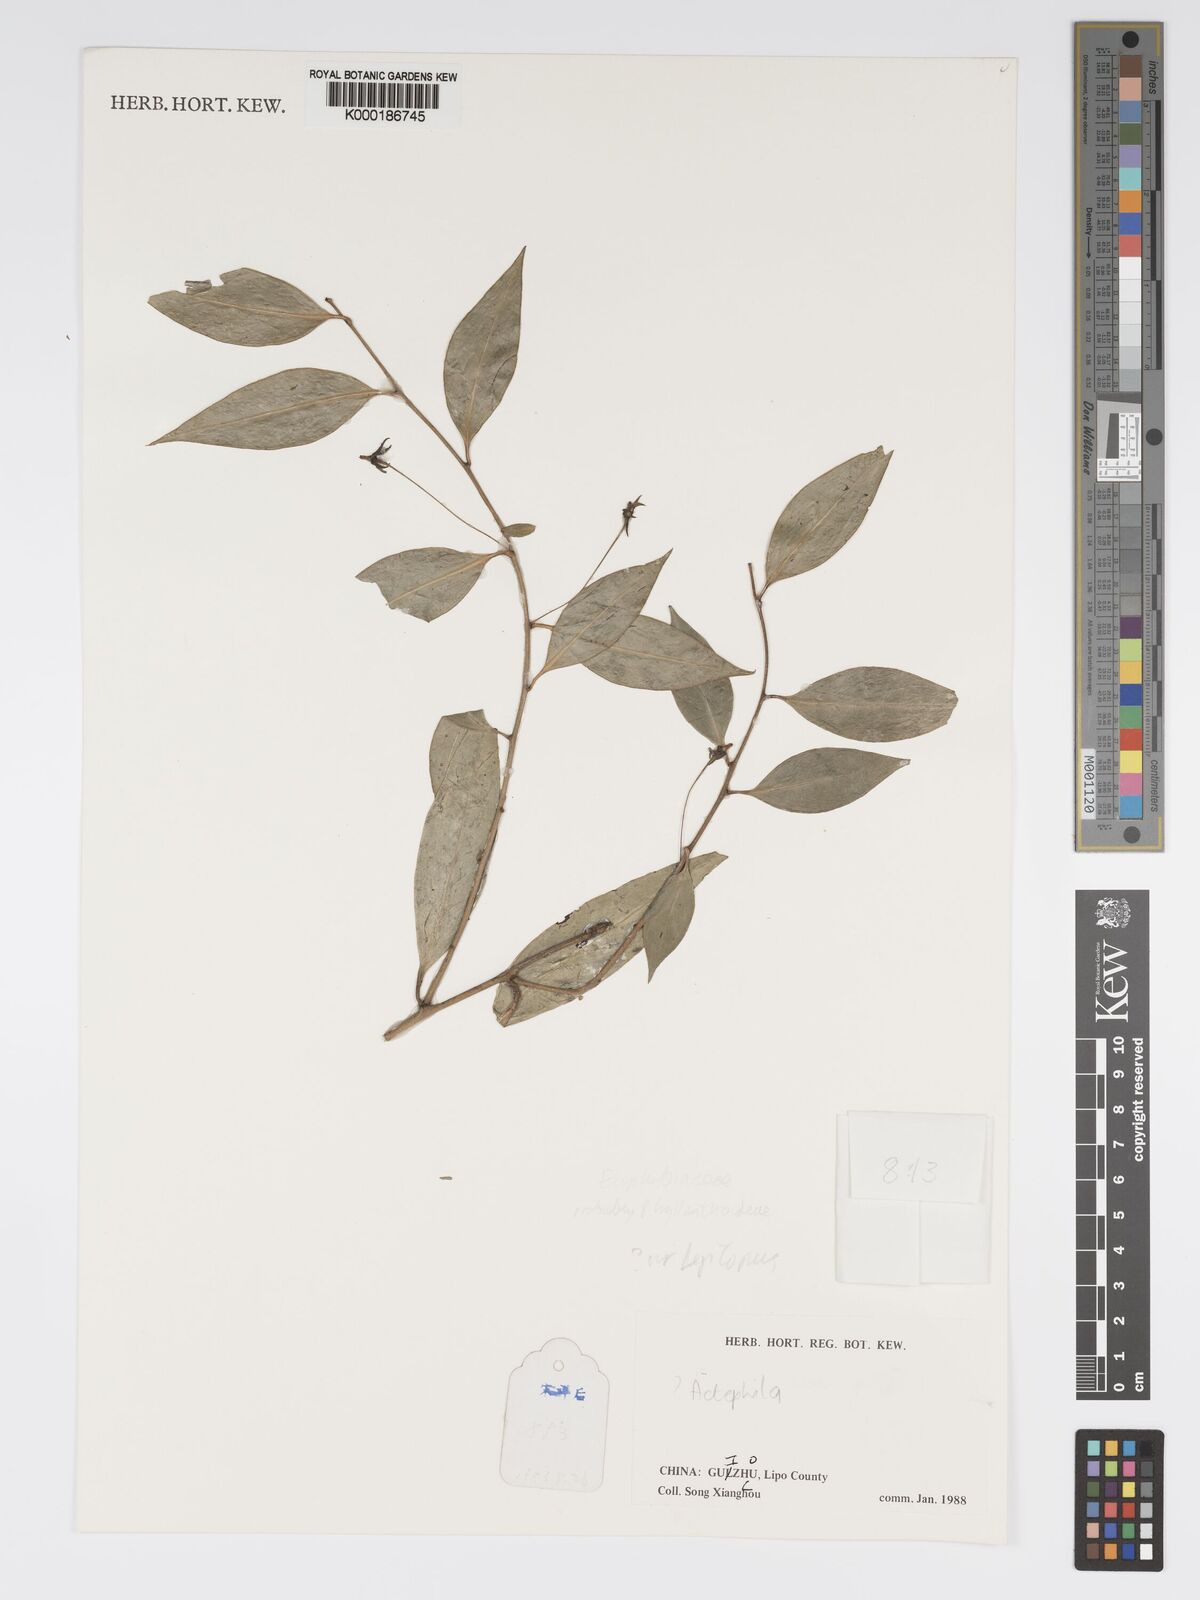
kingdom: Plantae
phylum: Tracheophyta
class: Magnoliopsida
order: Malpighiales
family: Phyllanthaceae
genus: Actephila
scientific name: Actephila
